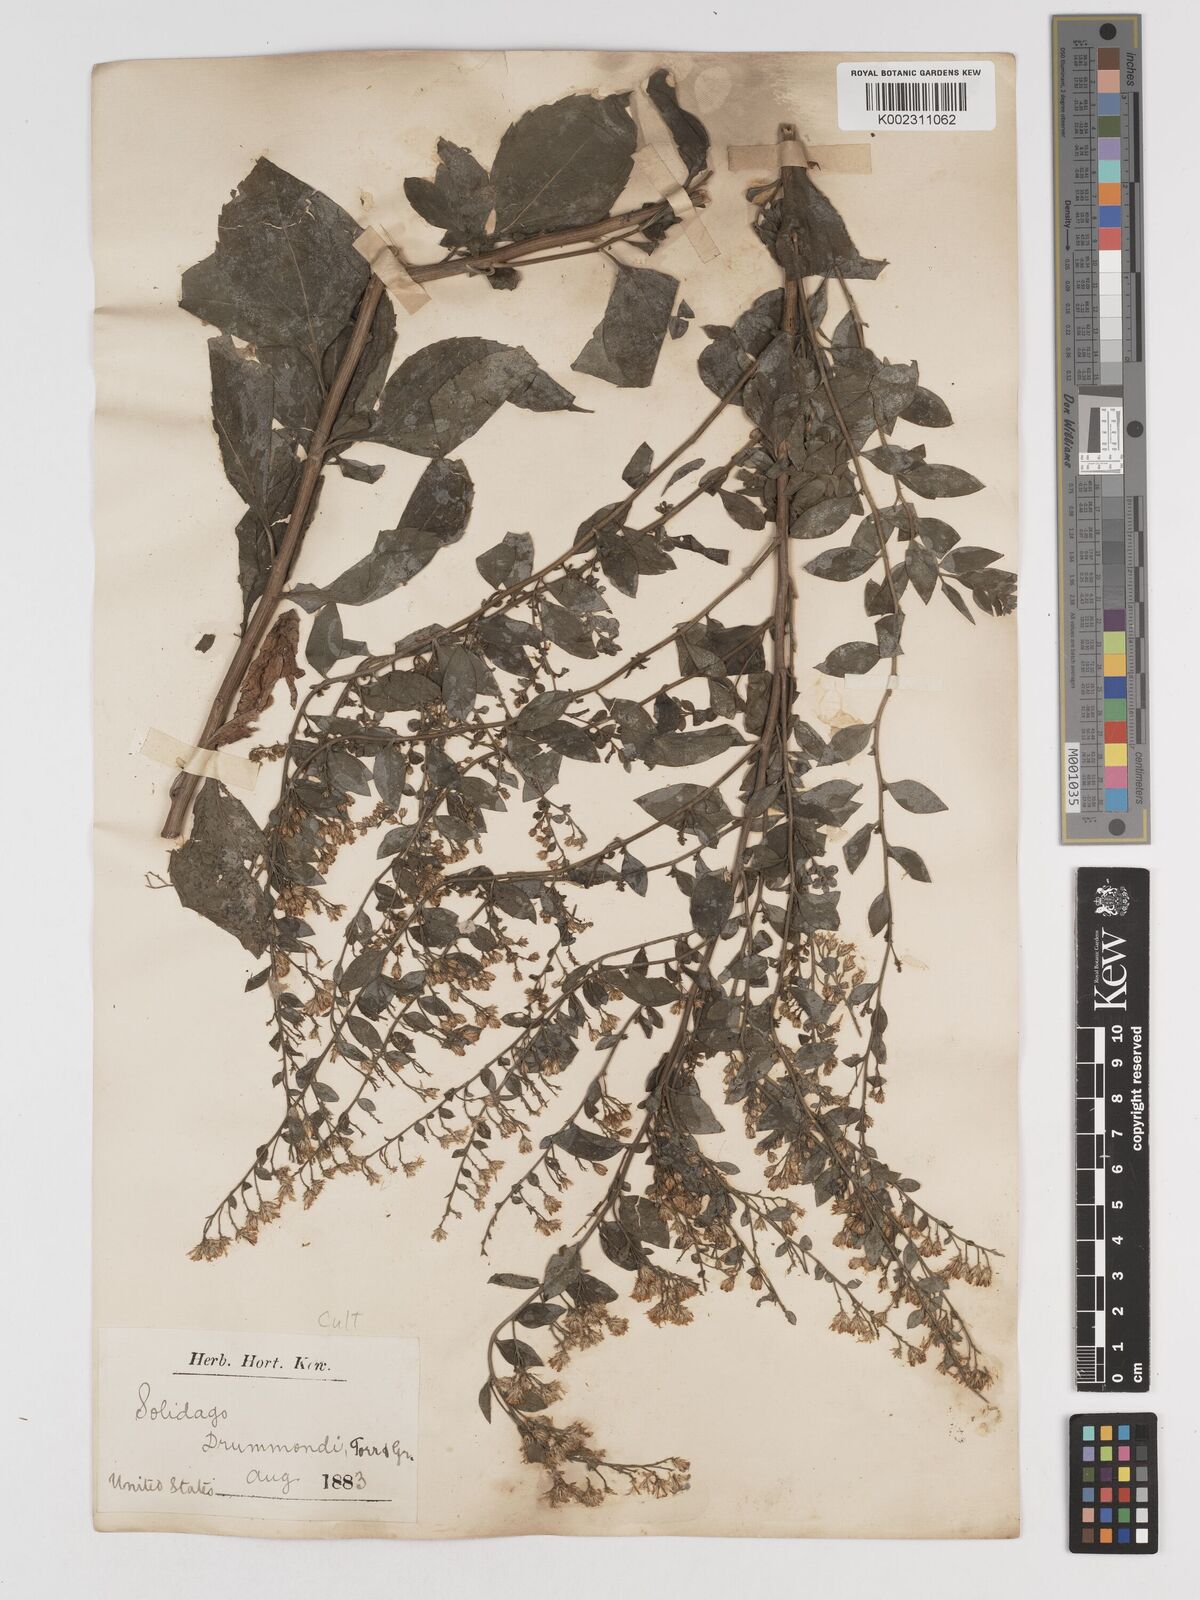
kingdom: Plantae
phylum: Tracheophyta
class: Magnoliopsida
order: Asterales
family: Asteraceae
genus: Solidago
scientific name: Solidago drummondii
